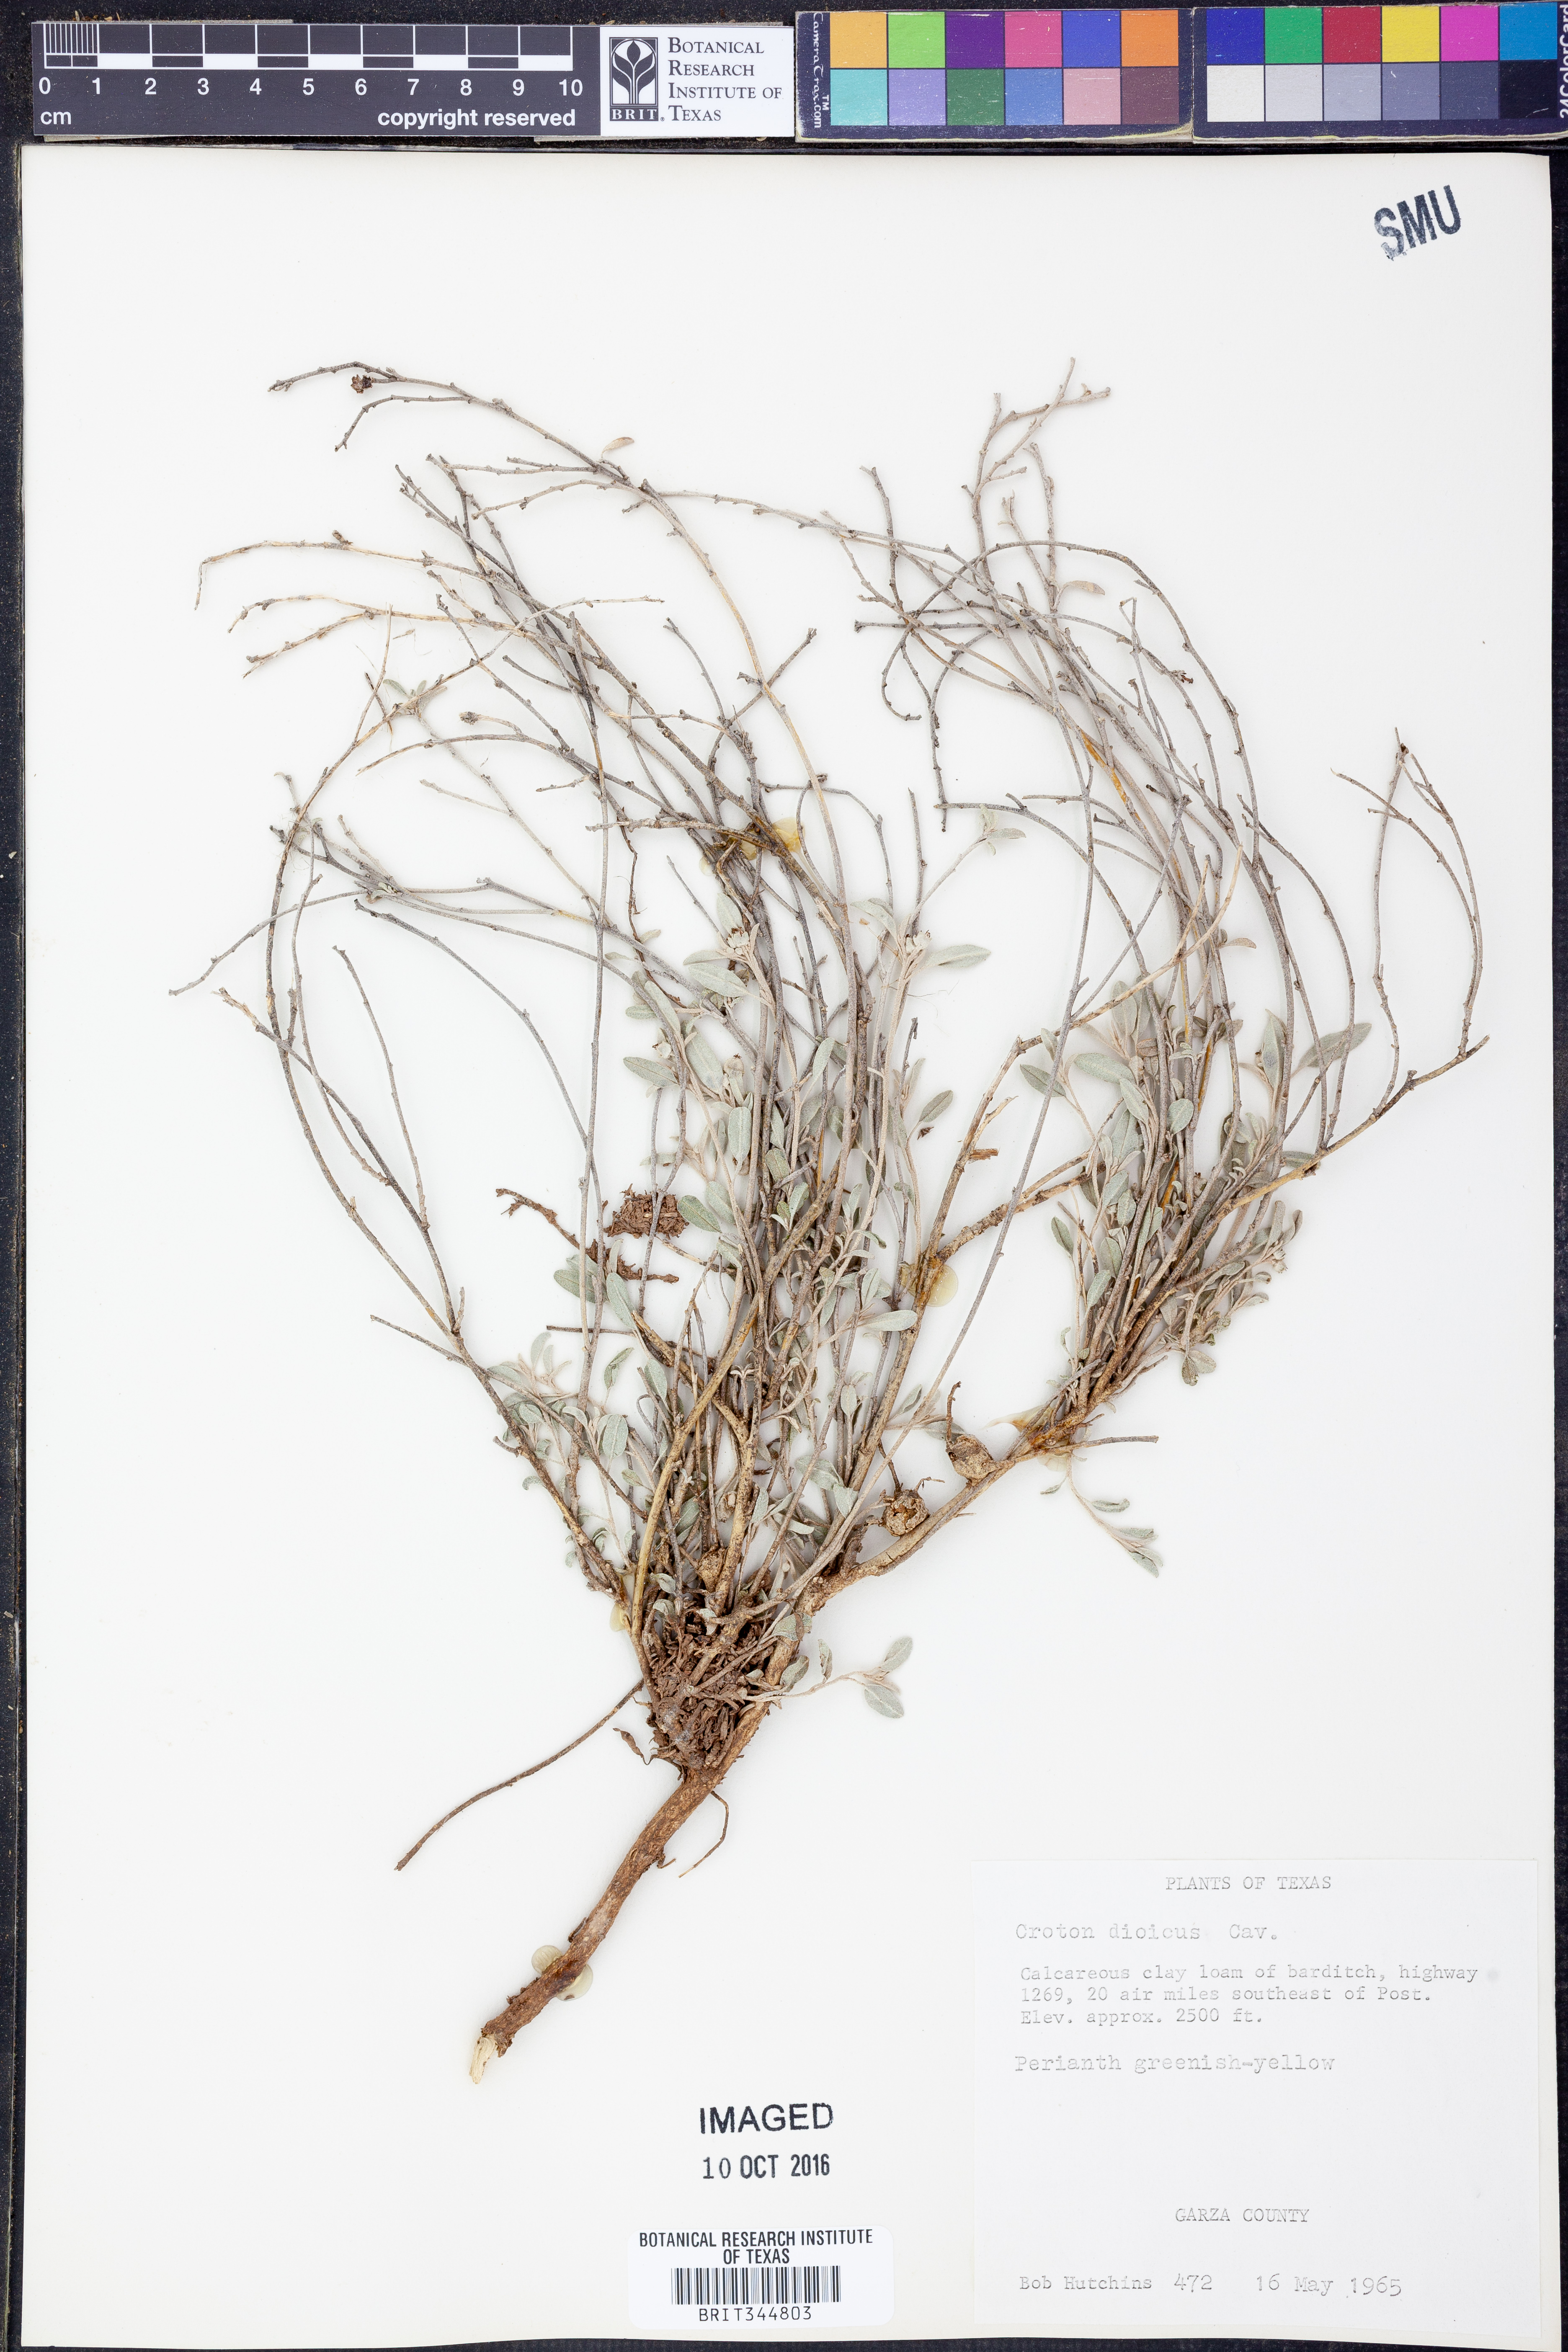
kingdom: Plantae
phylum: Tracheophyta
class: Magnoliopsida
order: Malpighiales
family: Euphorbiaceae
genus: Croton
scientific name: Croton dioicus
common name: Grassland croton
